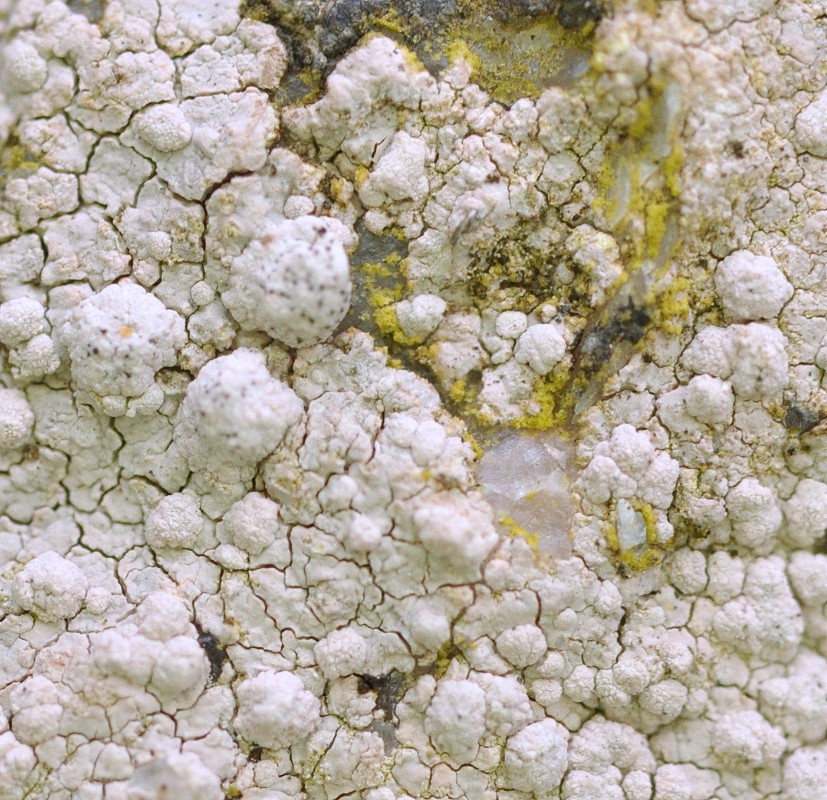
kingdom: Fungi
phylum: Ascomycota
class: Lecanoromycetes
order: Lecanorales
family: Lecanoraceae
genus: Glaucomaria
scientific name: Glaucomaria rupicola
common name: stengærde-kantskivelav
